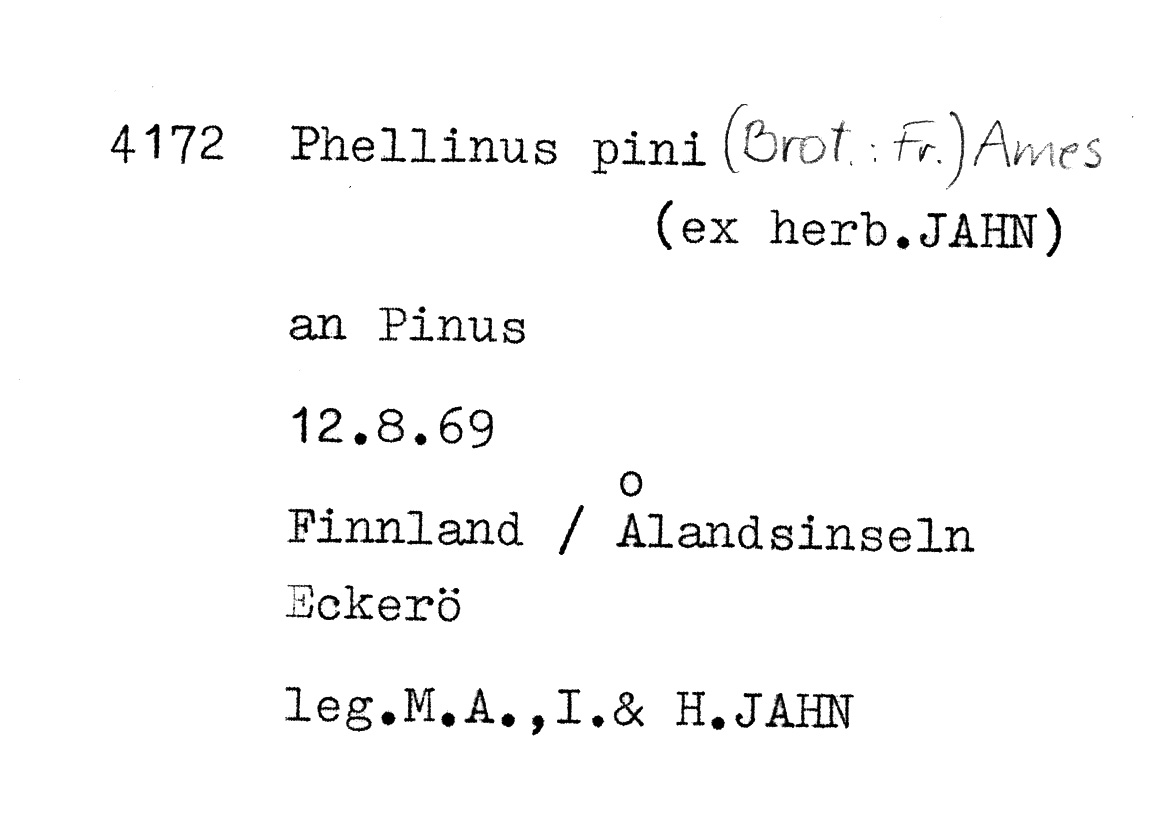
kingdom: Plantae
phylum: Tracheophyta
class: Pinopsida
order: Pinales
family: Pinaceae
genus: Pinus
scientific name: Pinus
